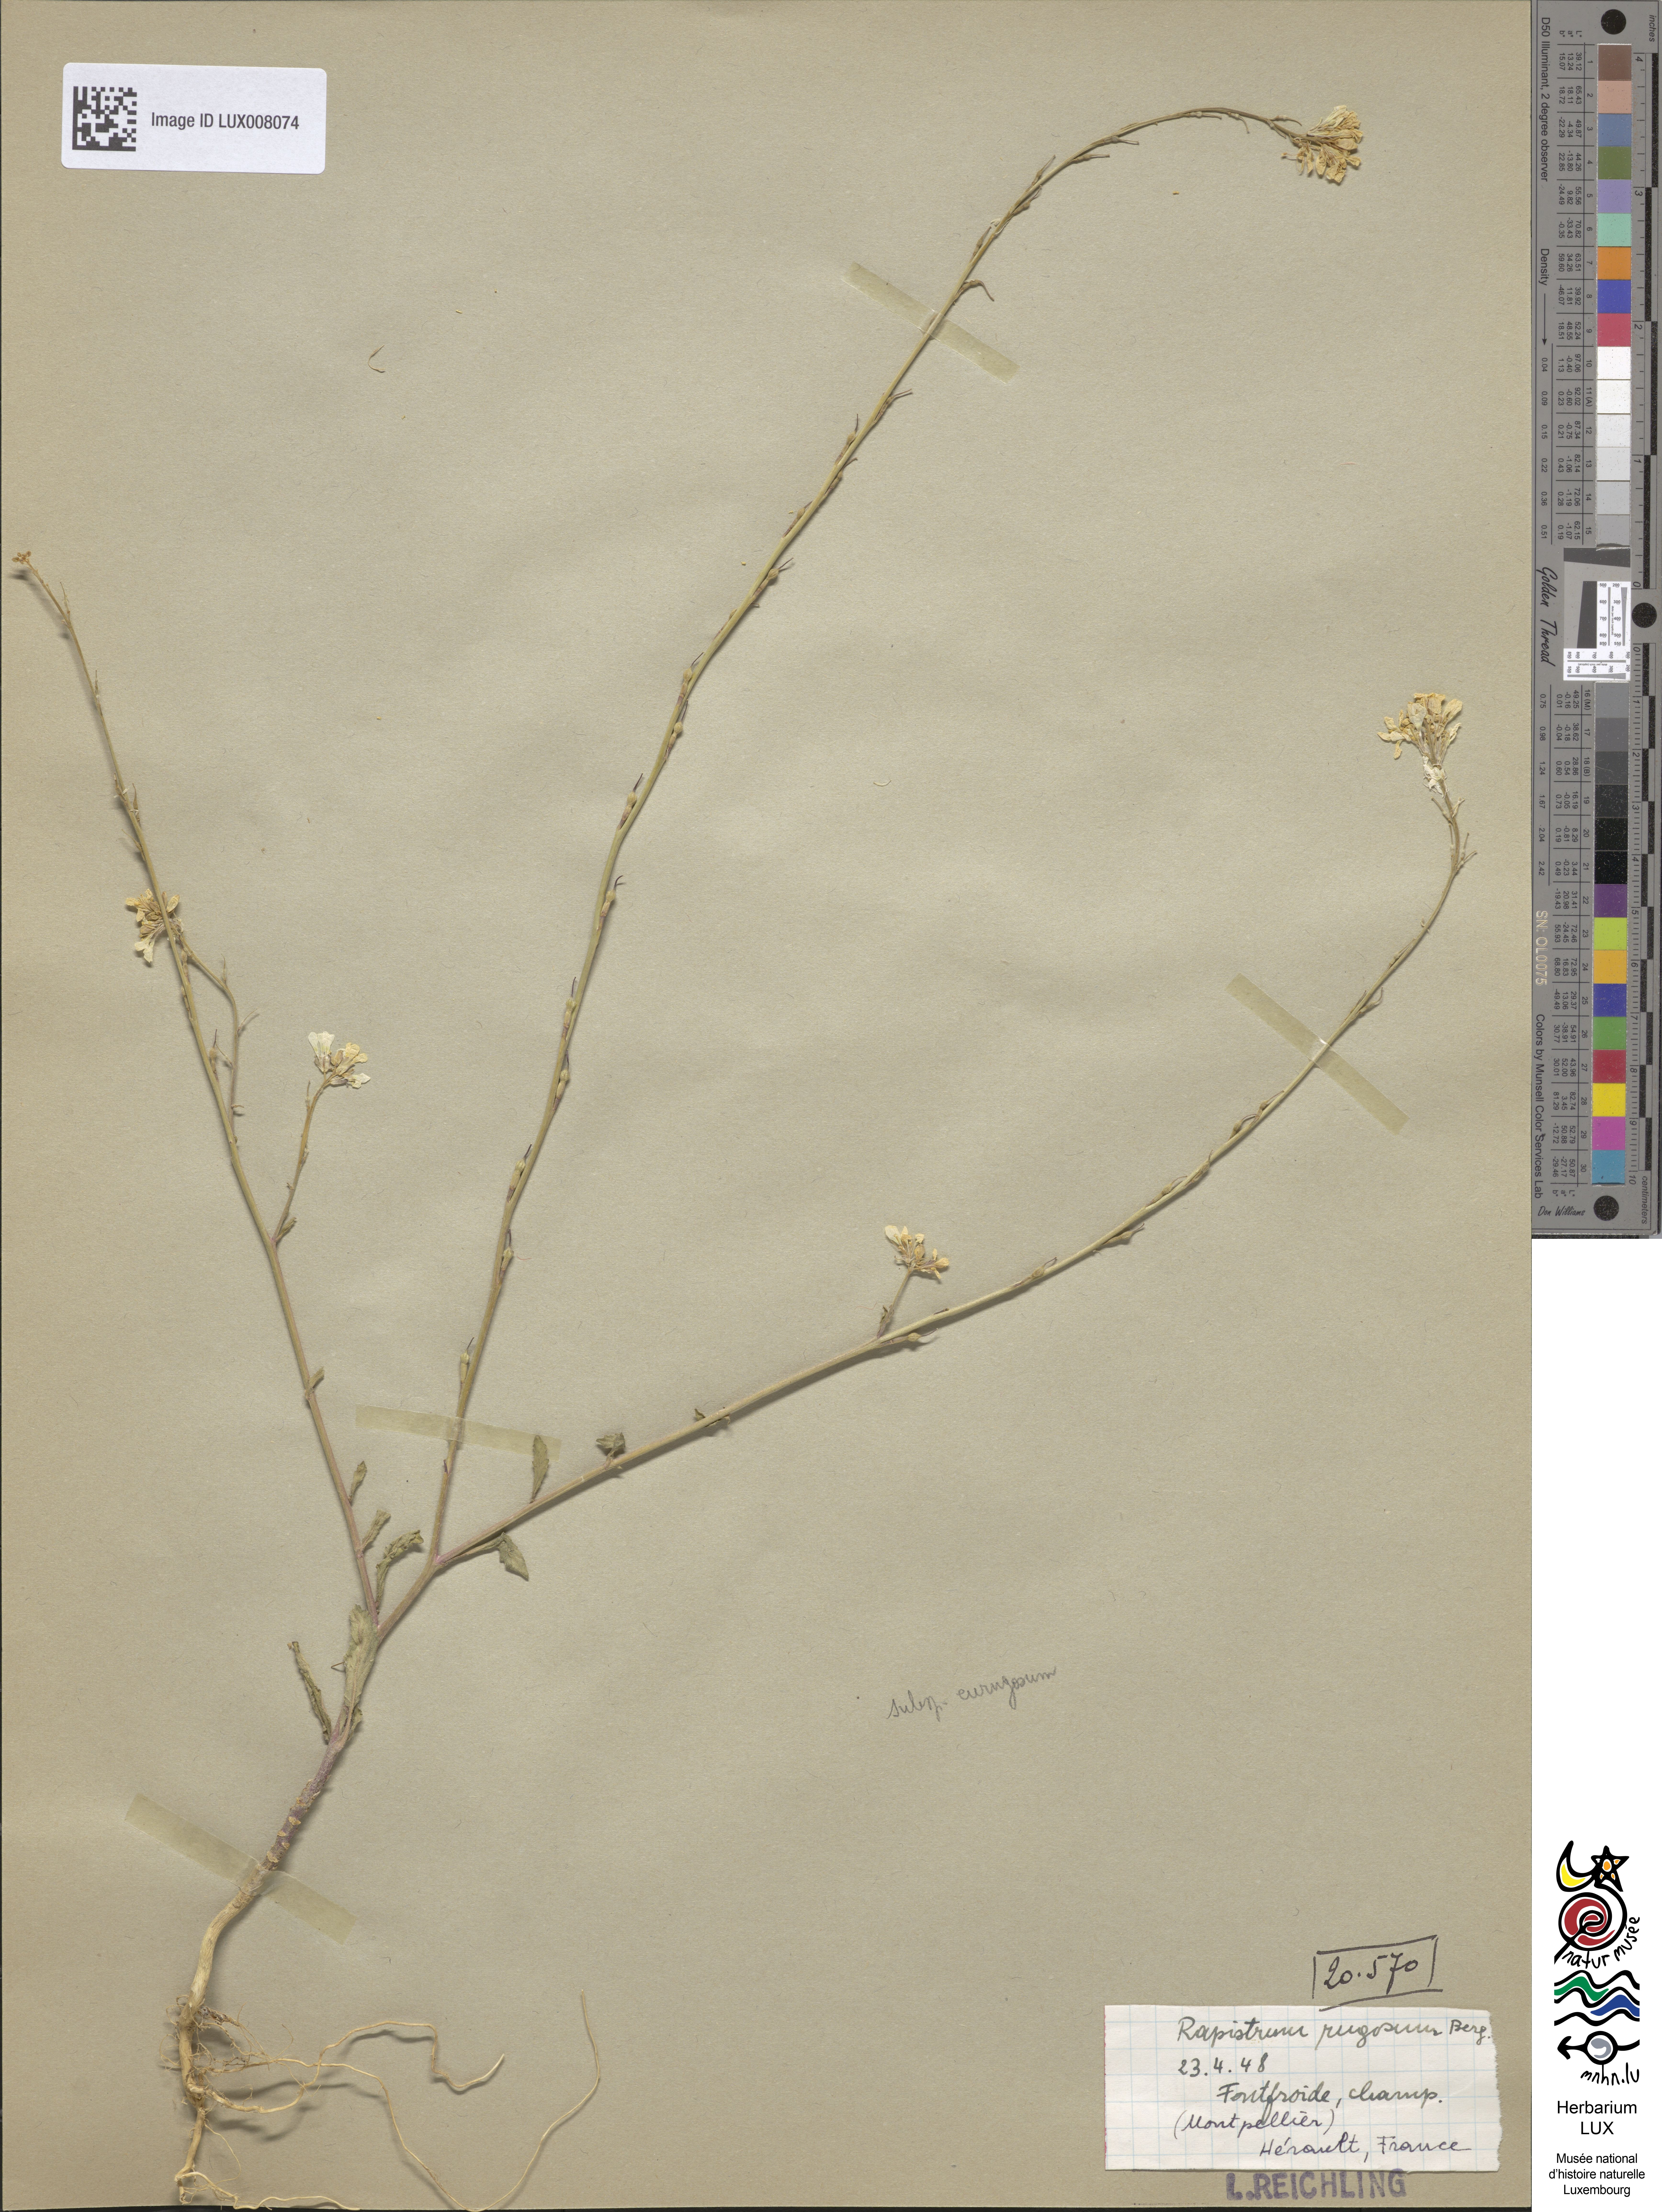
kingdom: Plantae
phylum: Tracheophyta
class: Magnoliopsida
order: Brassicales
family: Brassicaceae
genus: Rapistrum
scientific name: Rapistrum rugosum
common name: Annual bastardcabbage
